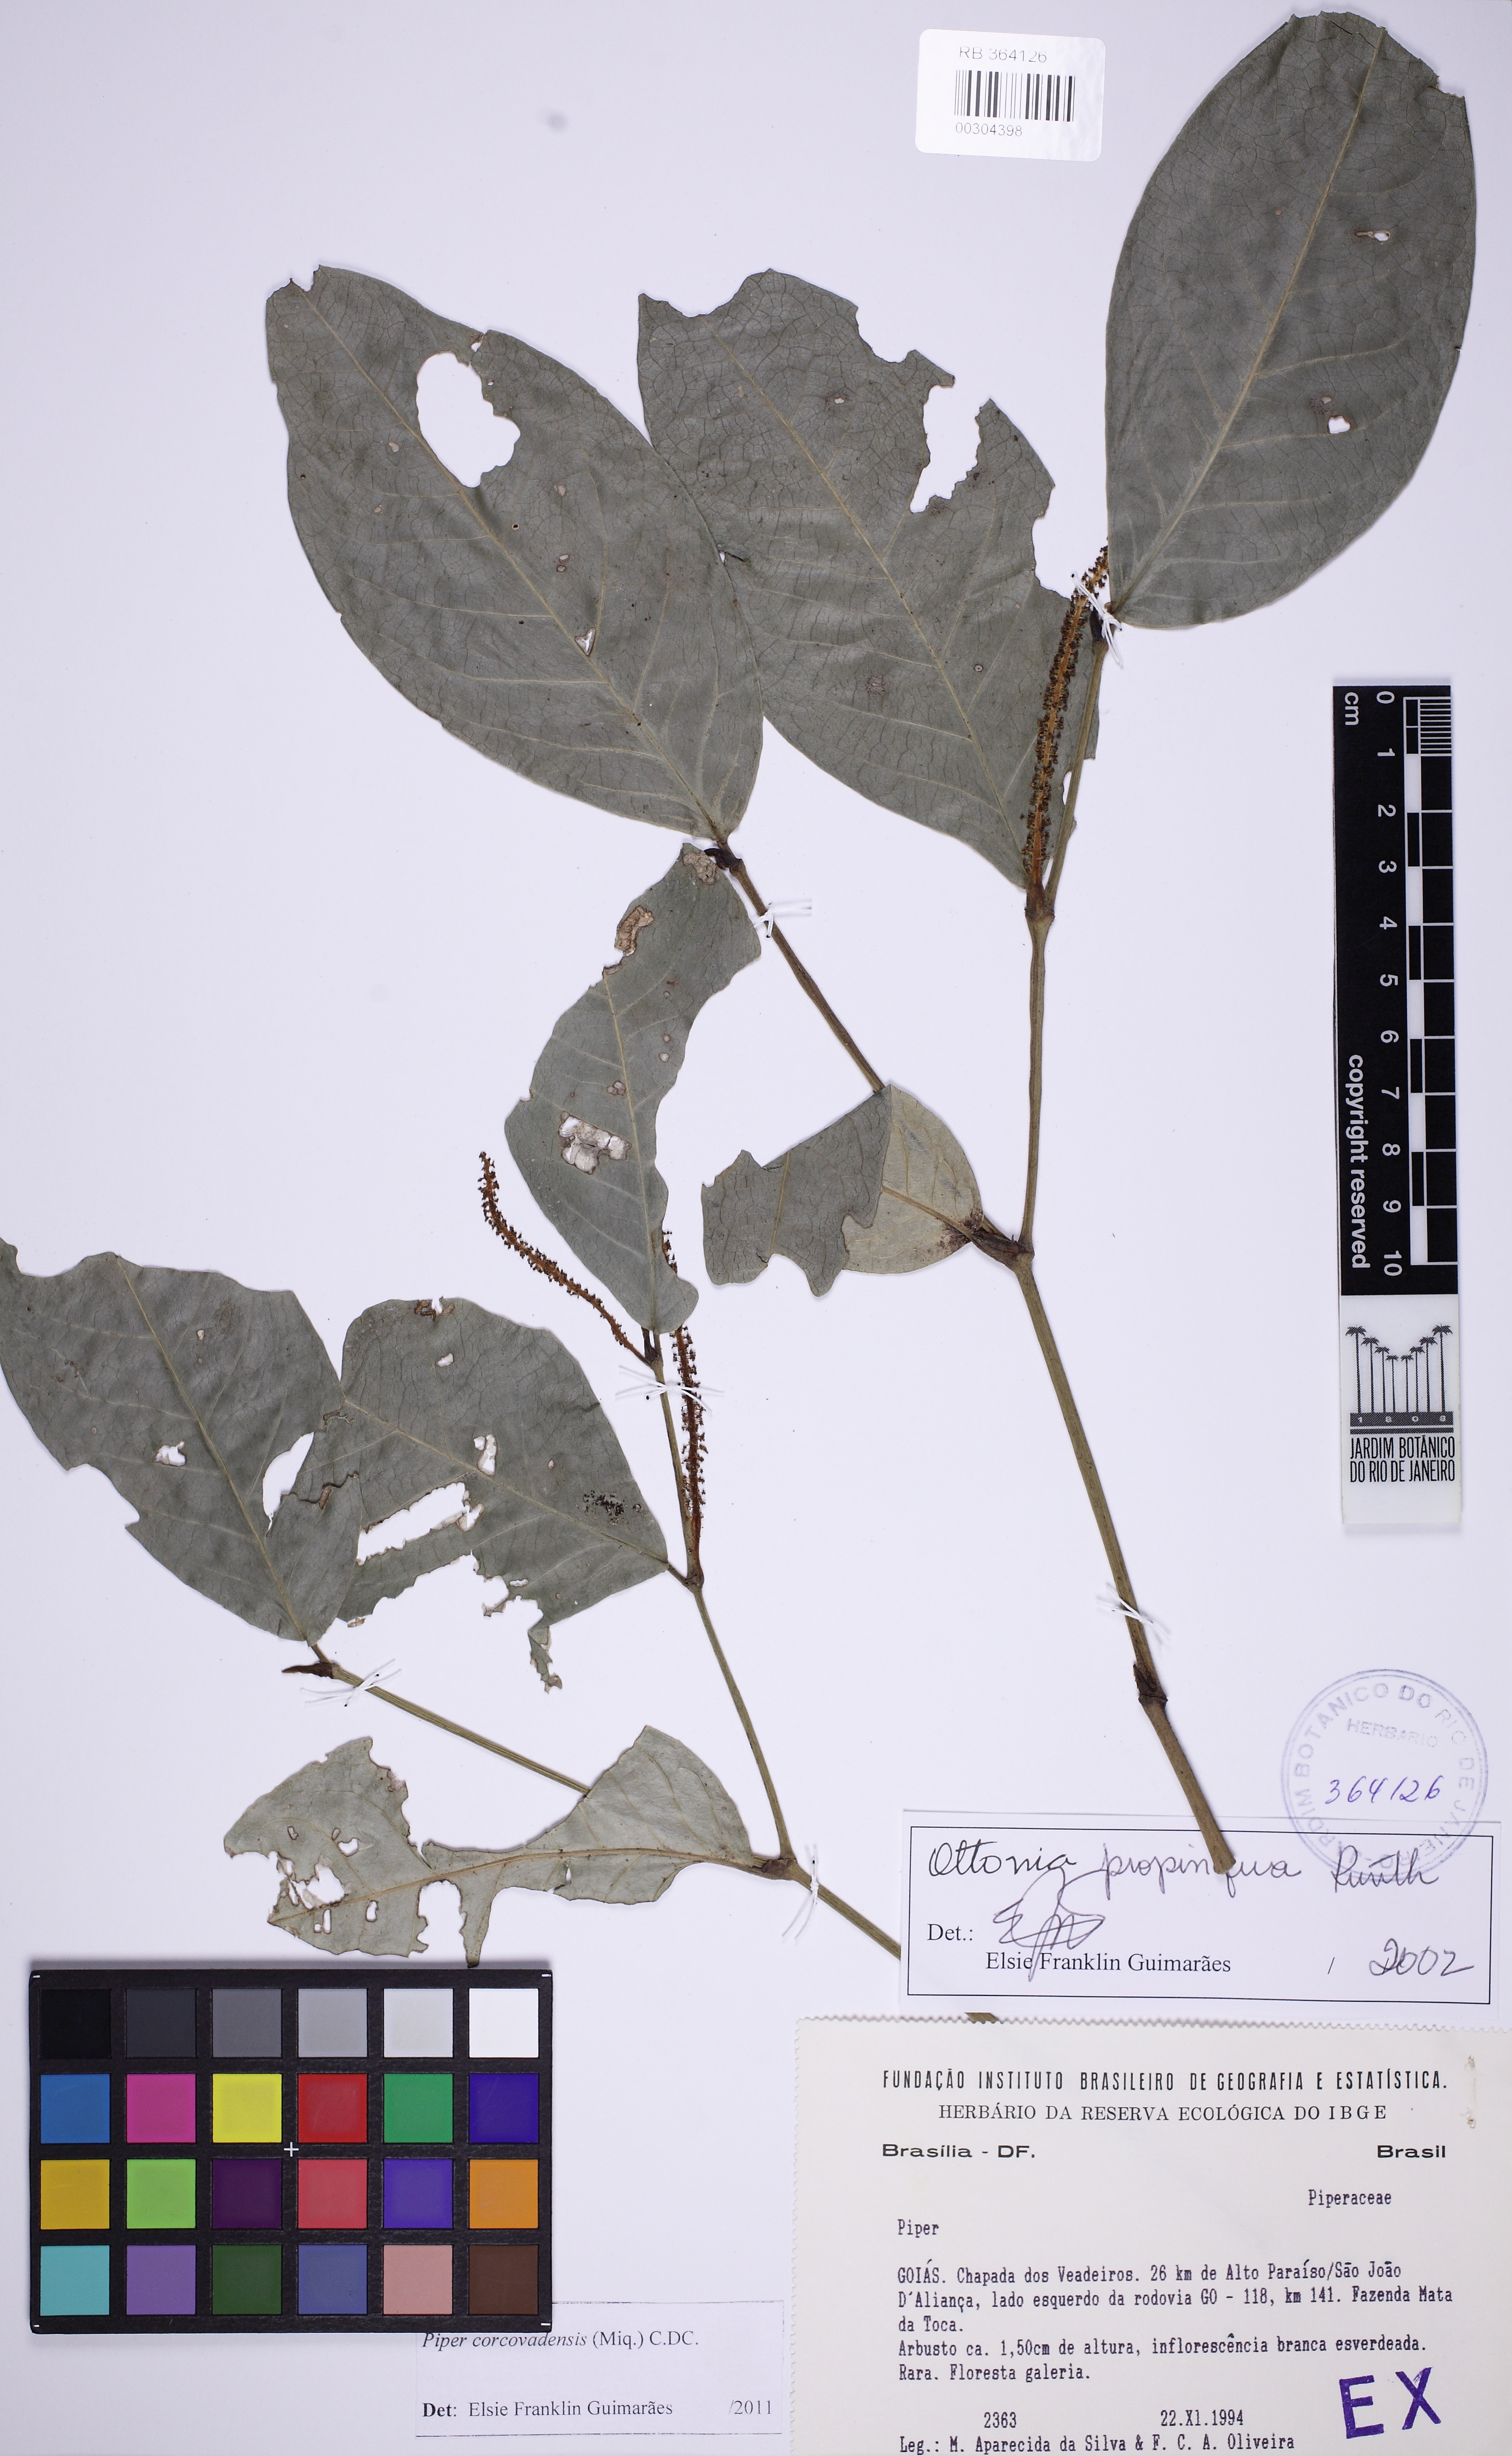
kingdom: Plantae
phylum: Tracheophyta
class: Magnoliopsida
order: Piperales
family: Piperaceae
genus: Piper
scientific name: Piper corcovadense
